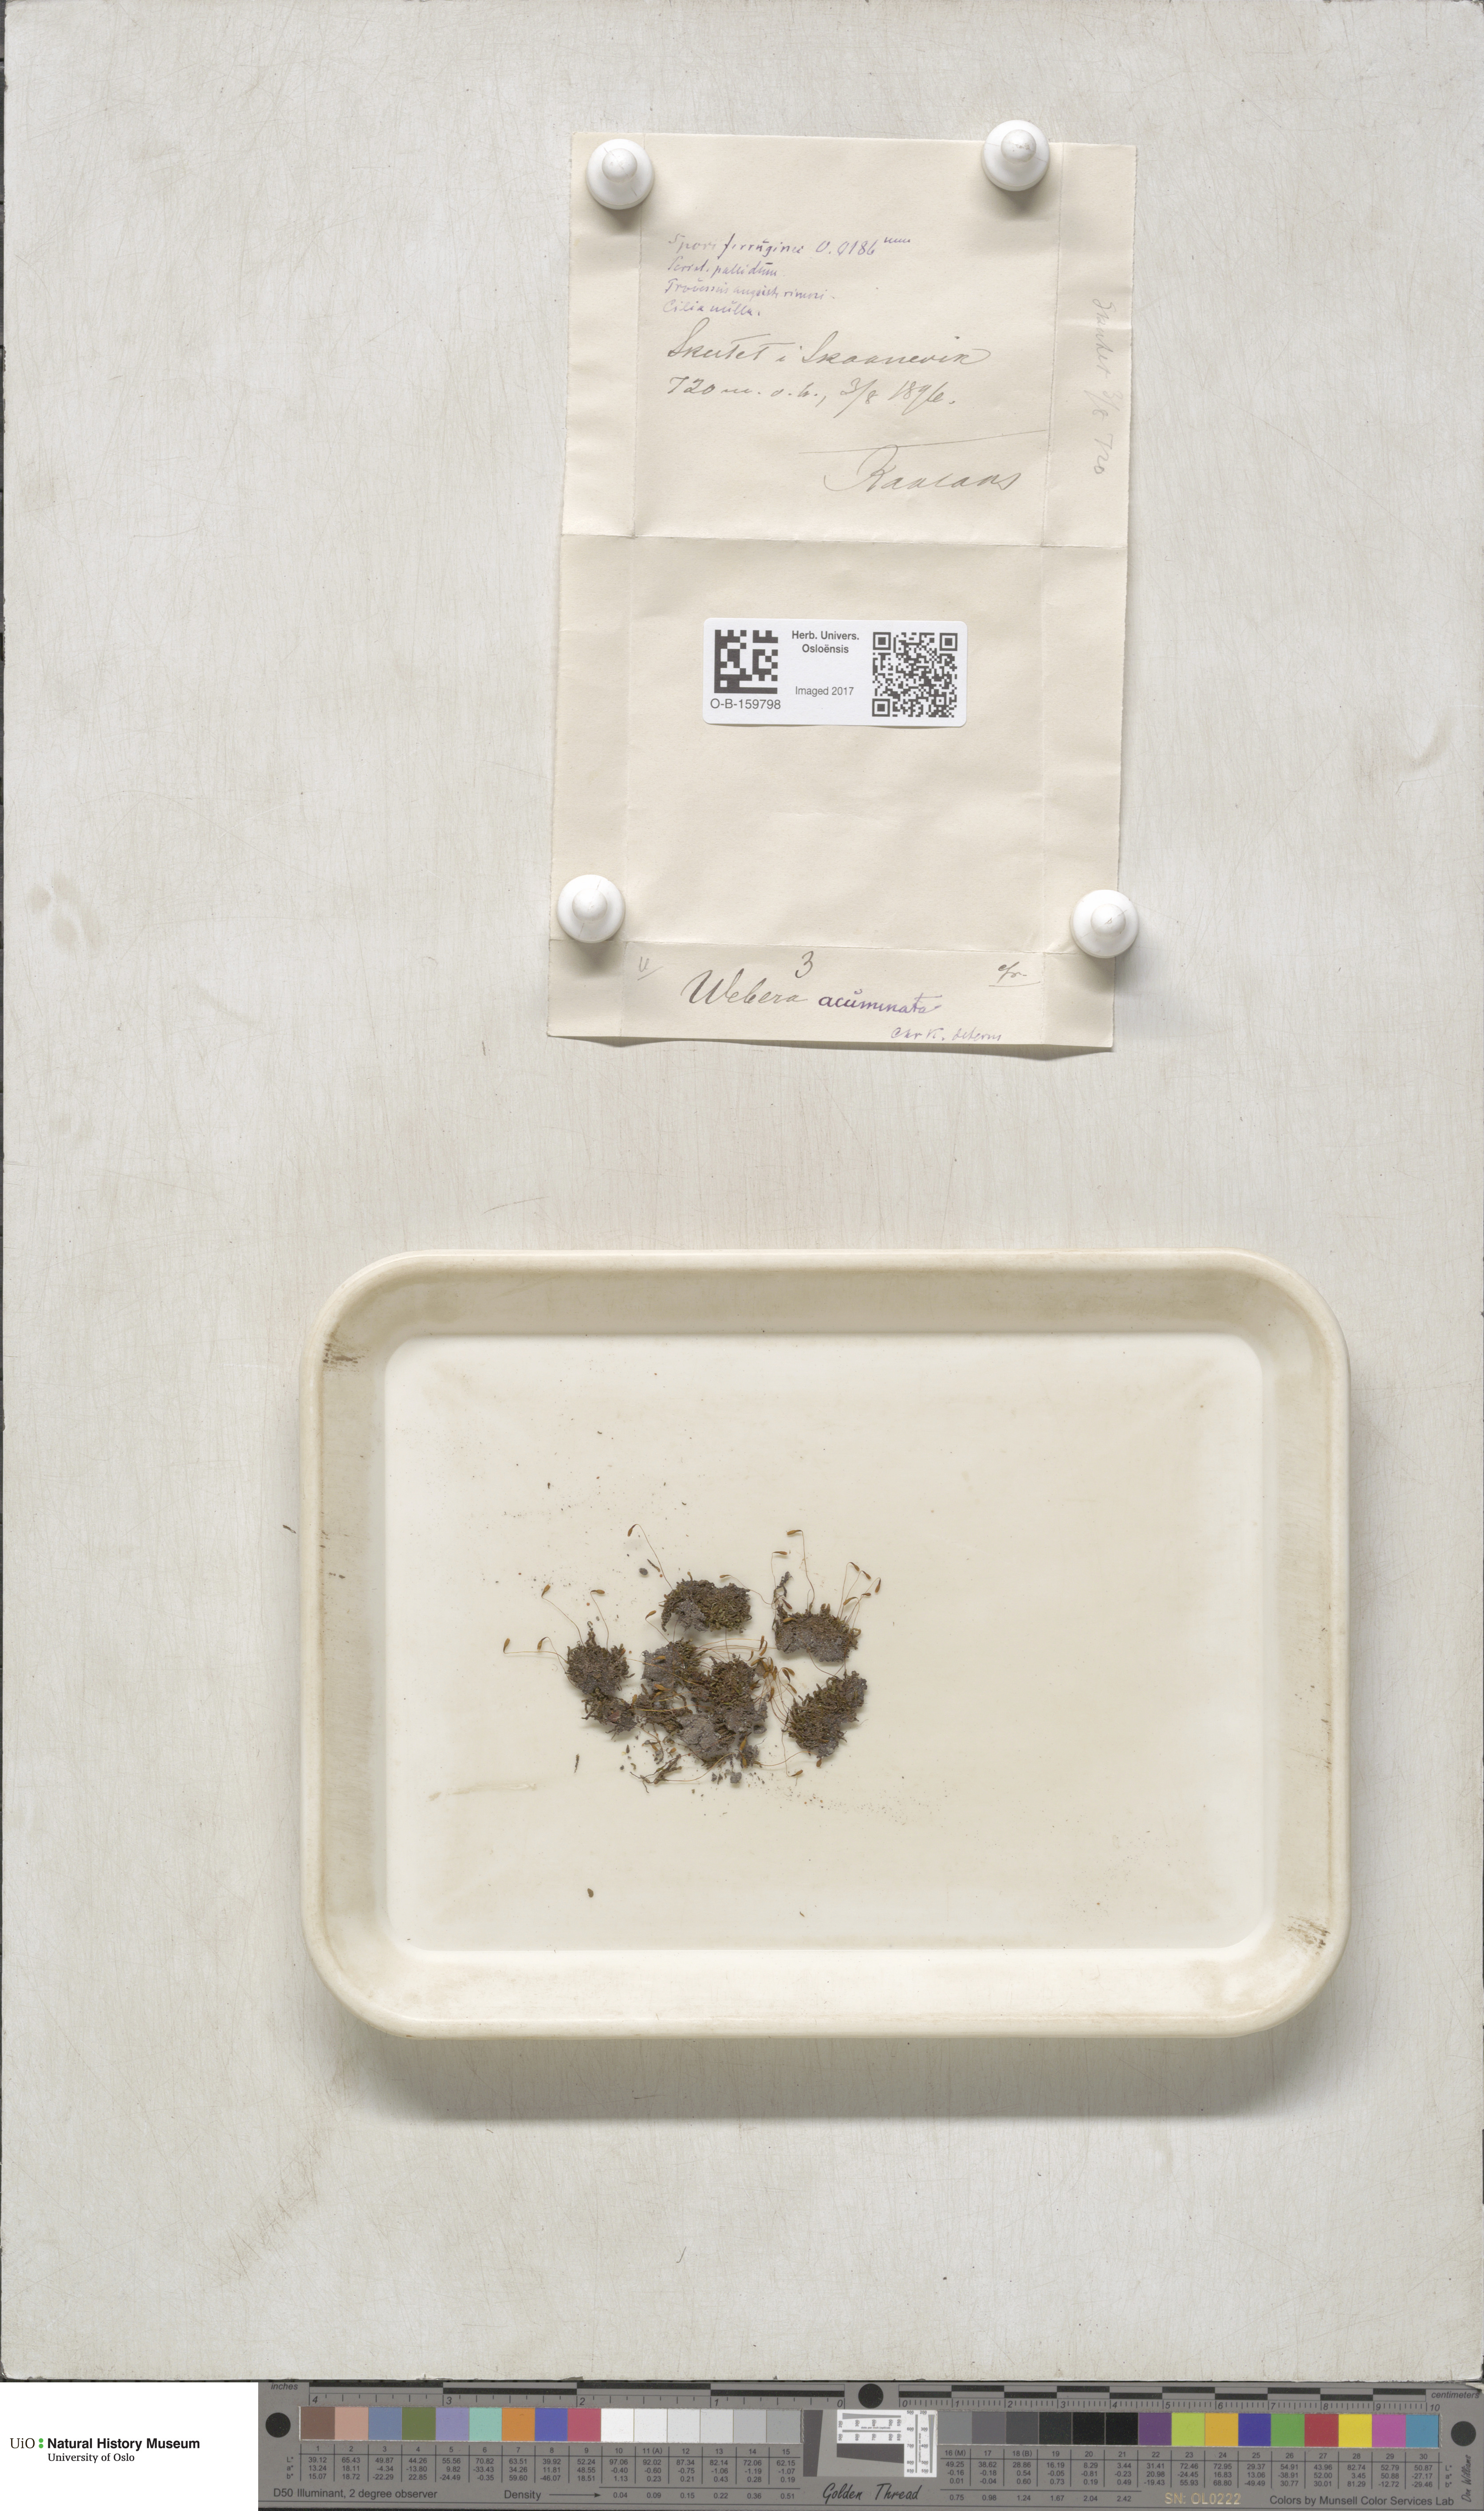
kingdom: Plantae
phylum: Bryophyta
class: Bryopsida
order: Bryales
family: Mniaceae
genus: Pohlia
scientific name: Pohlia elongata
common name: Long-fruited thread-moss
